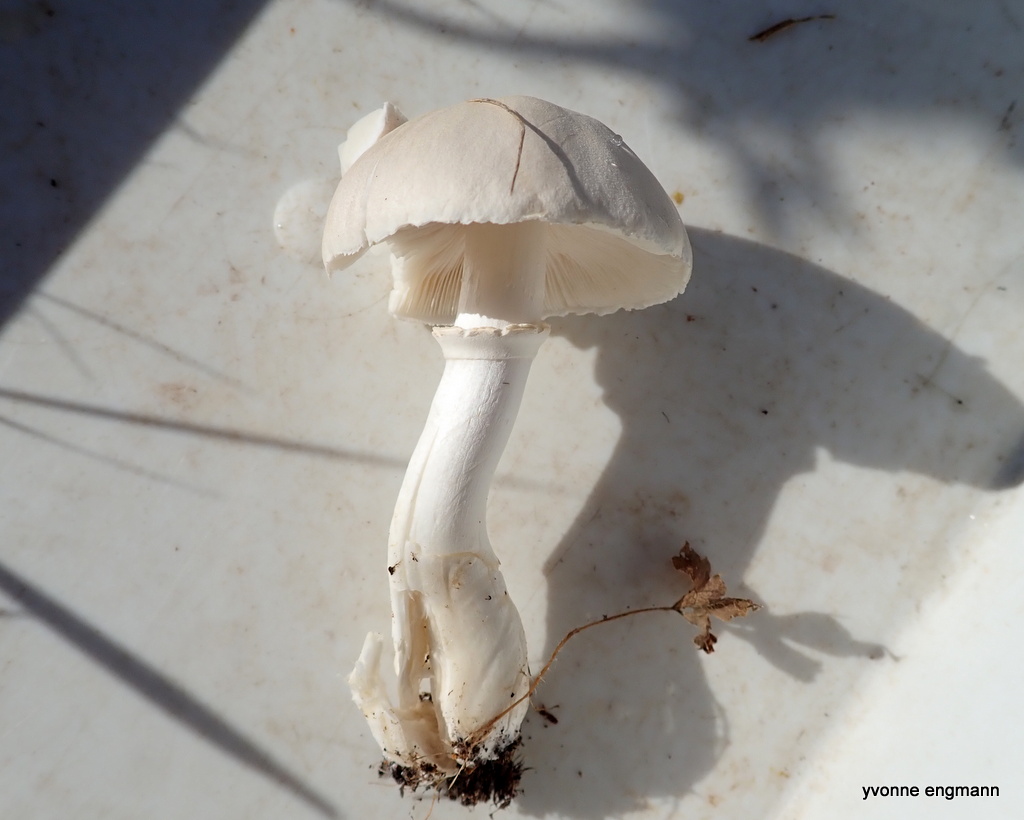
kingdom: Fungi
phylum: Basidiomycota
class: Agaricomycetes
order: Agaricales
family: Agaricaceae
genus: Leucoagaricus
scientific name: Leucoagaricus leucothites
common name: rosabladet silkehat
